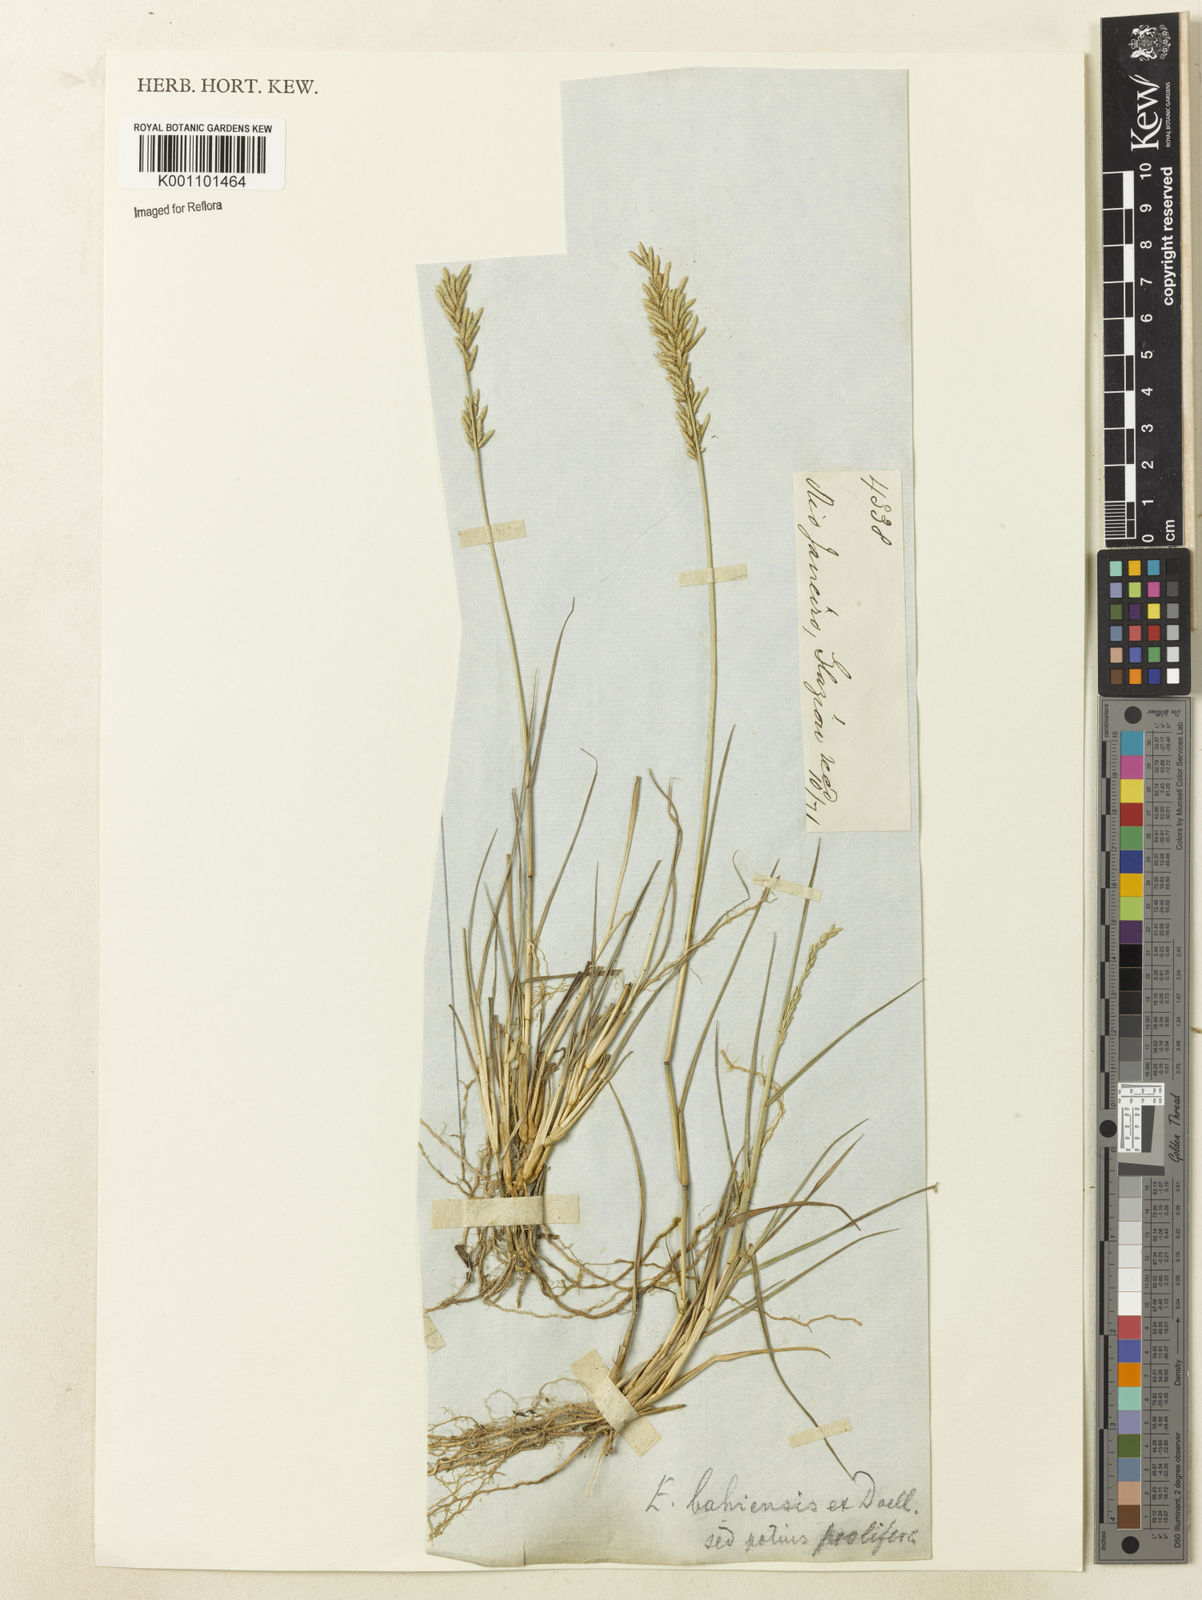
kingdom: Plantae
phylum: Tracheophyta
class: Liliopsida
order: Poales
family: Poaceae
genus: Eragrostis
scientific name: Eragrostis neesii
